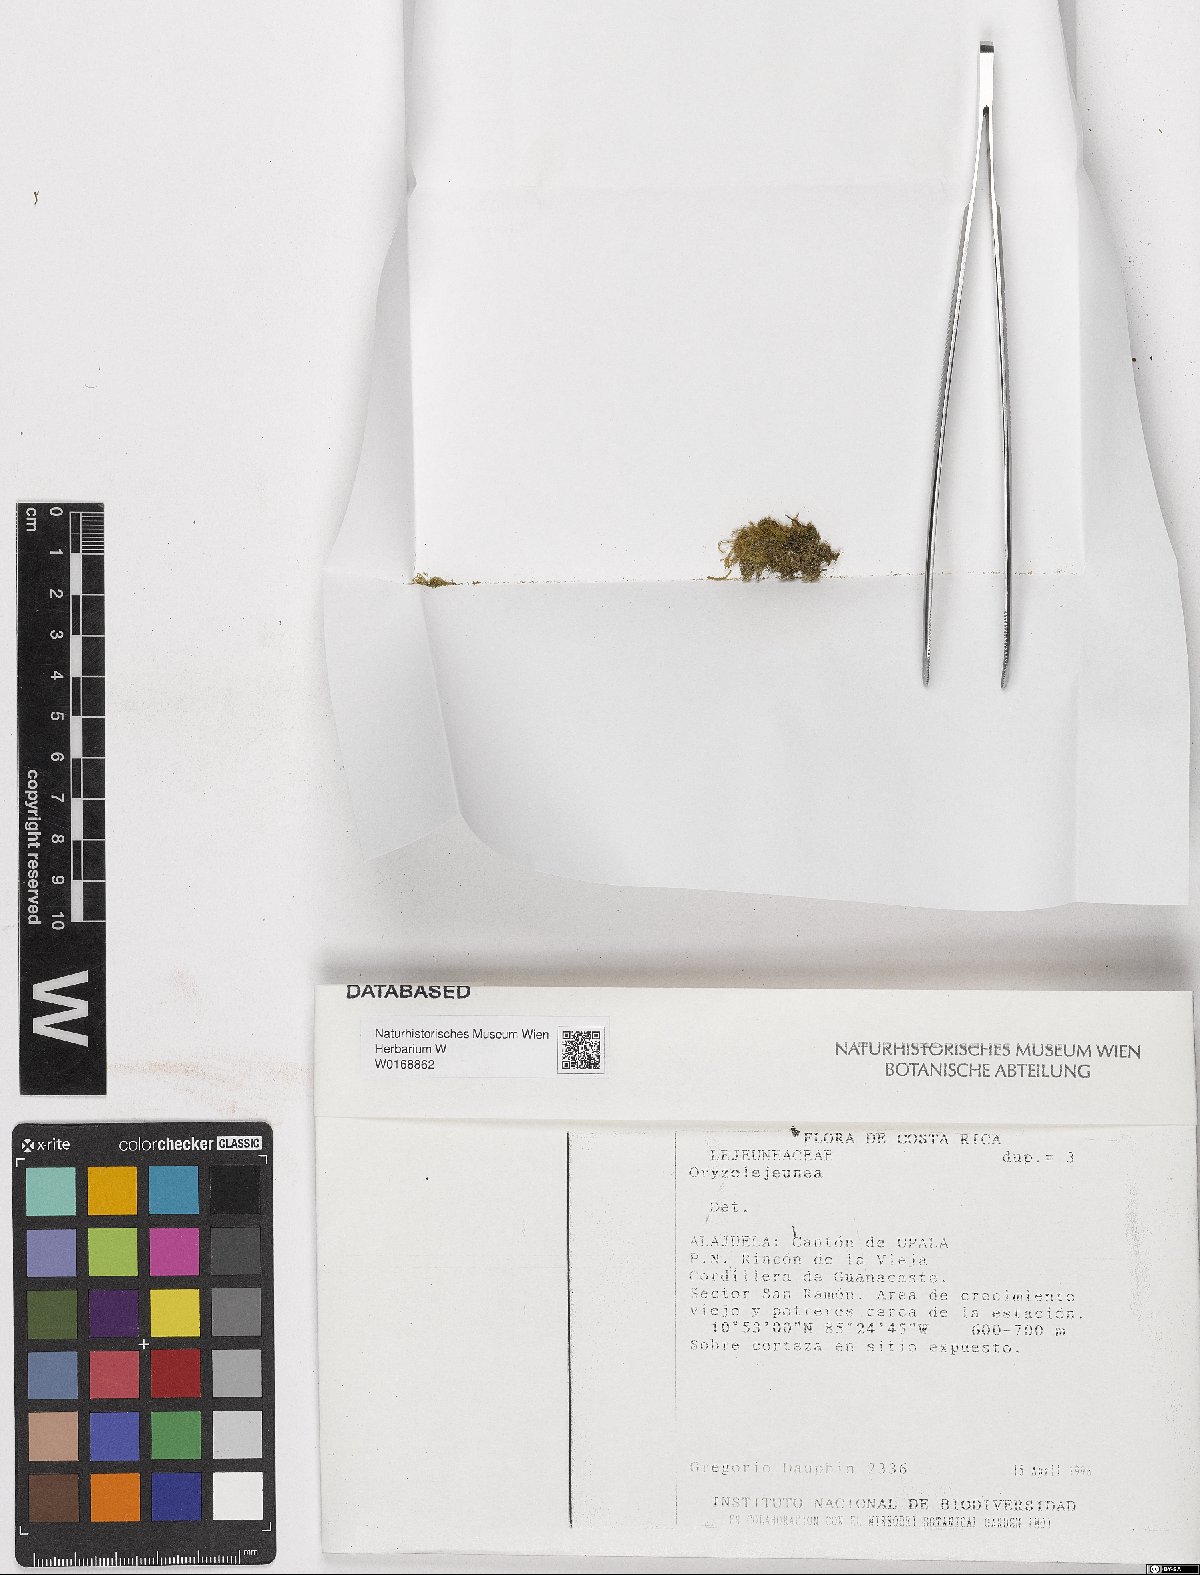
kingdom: Plantae
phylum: Marchantiophyta
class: Jungermanniopsida
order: Porellales
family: Lejeuneaceae
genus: Lejeunea
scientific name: Lejeunea
